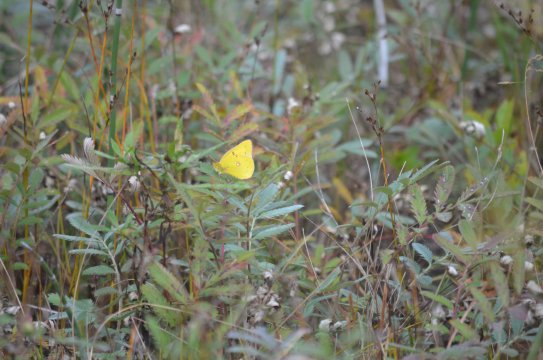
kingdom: Animalia
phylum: Arthropoda
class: Insecta
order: Lepidoptera
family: Pieridae
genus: Colias
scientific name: Colias
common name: Clouded Yellows
